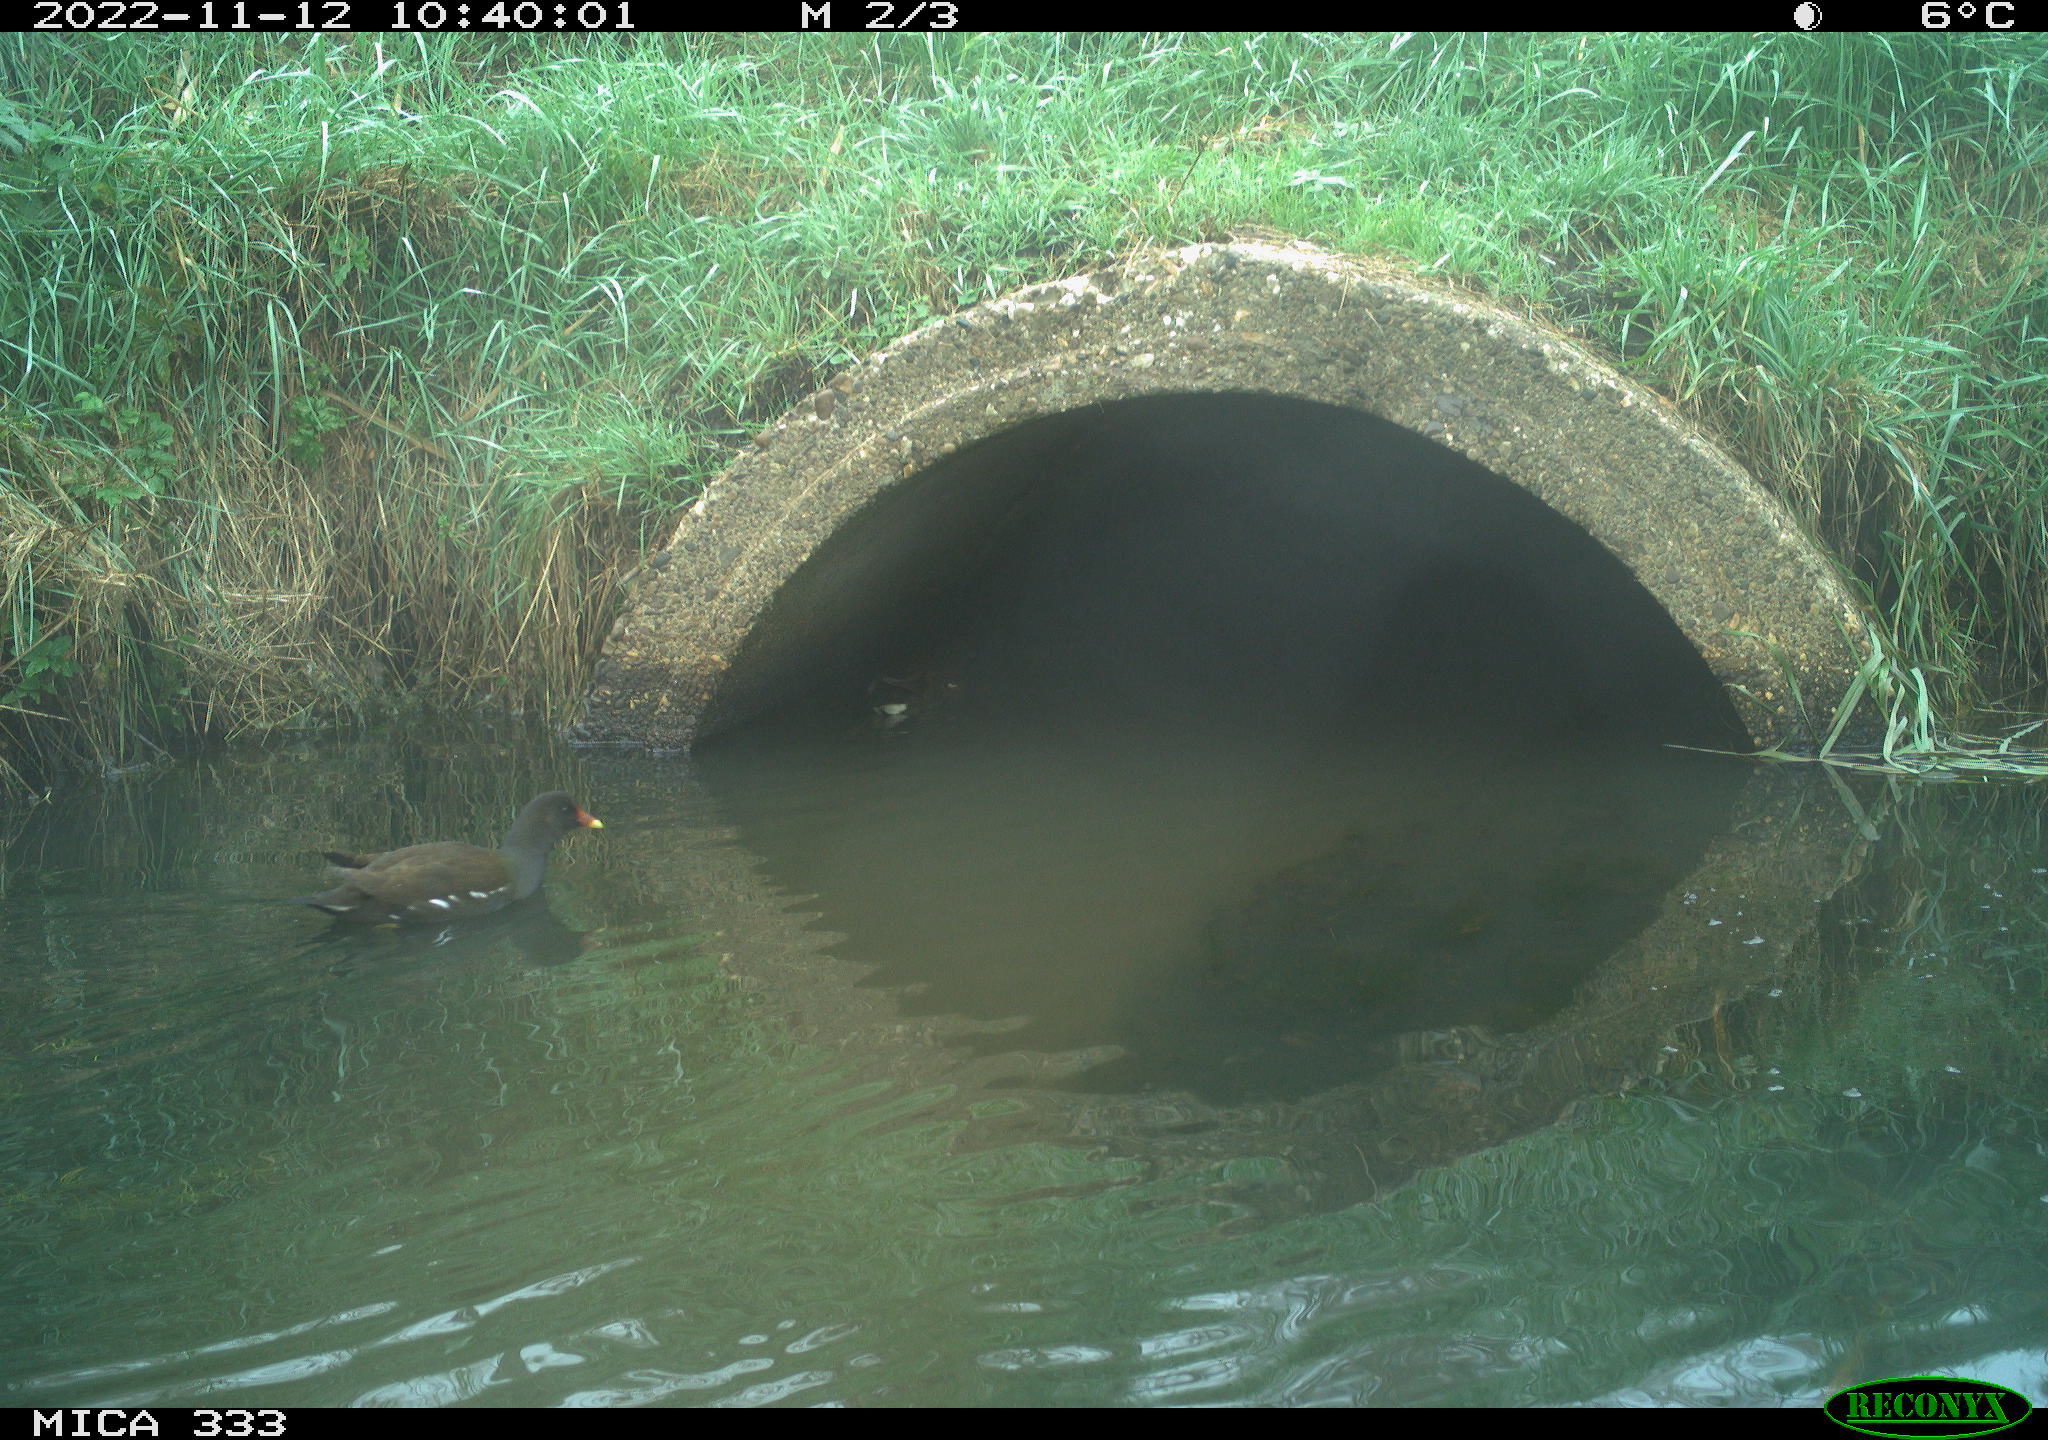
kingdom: Animalia
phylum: Chordata
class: Aves
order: Gruiformes
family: Rallidae
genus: Gallinula
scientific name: Gallinula chloropus
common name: Common moorhen
